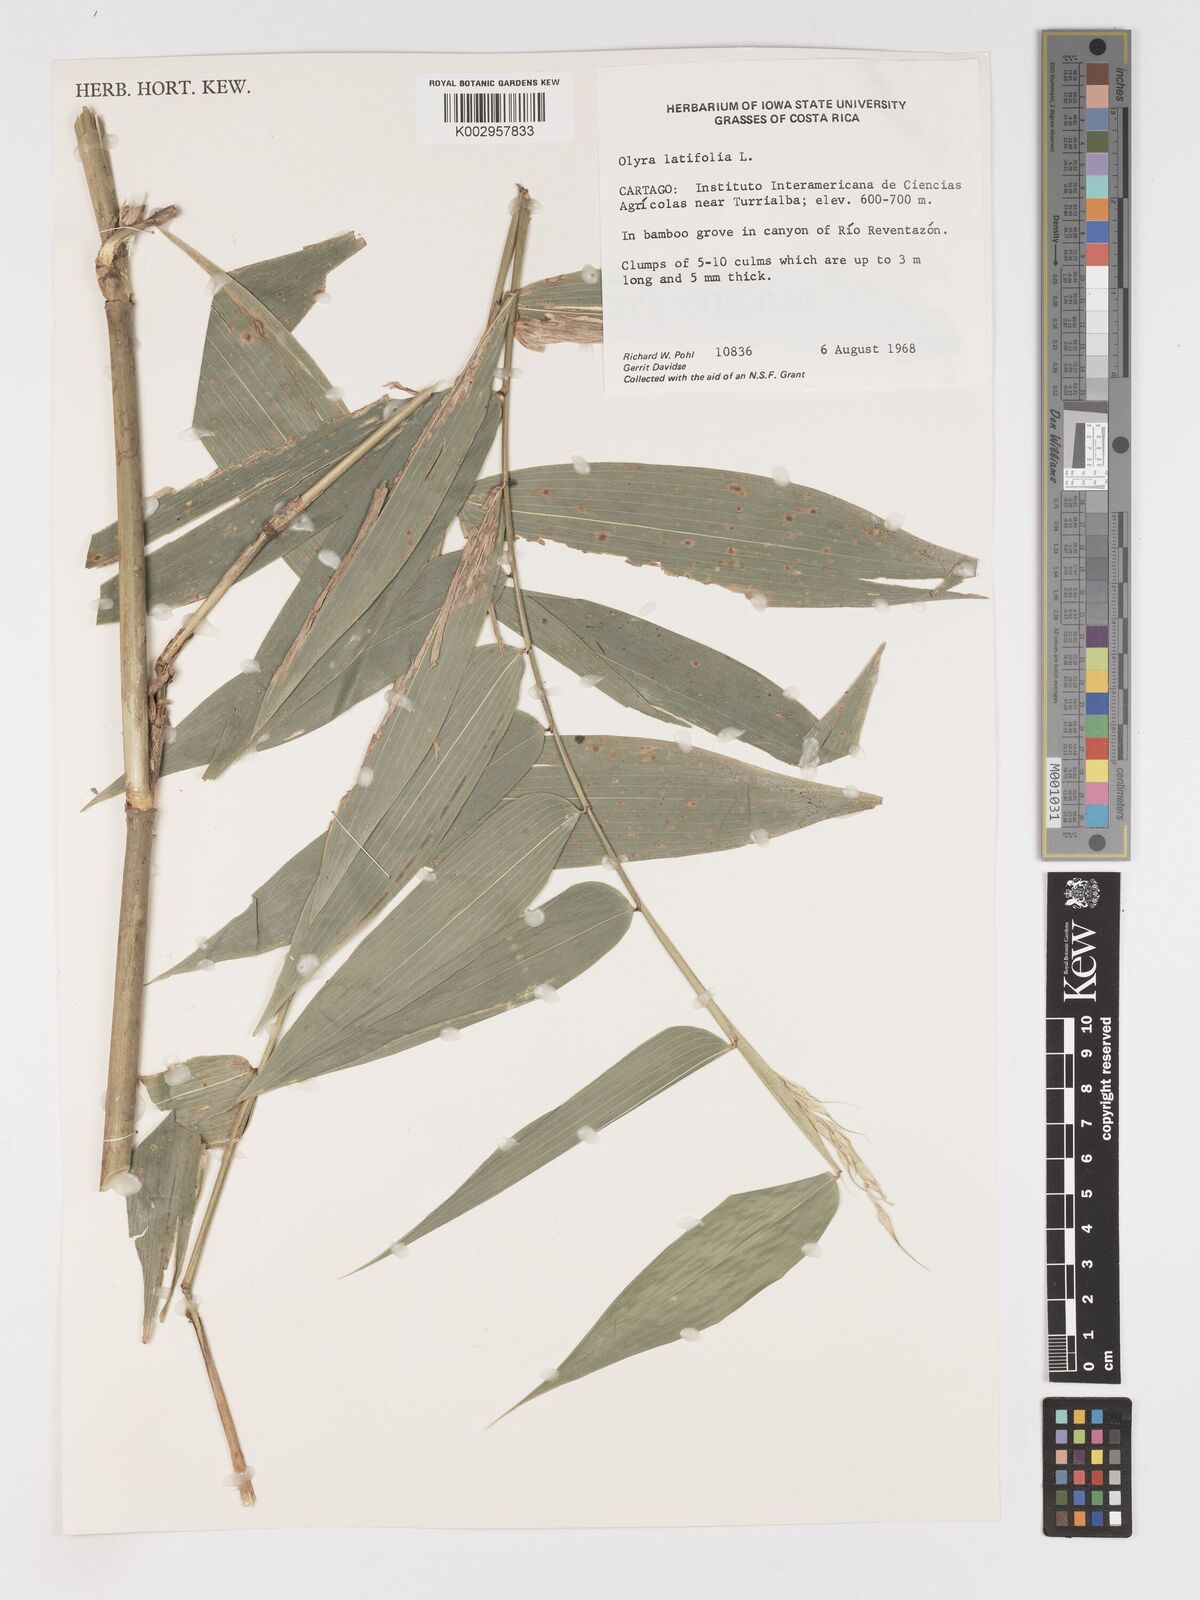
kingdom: Plantae
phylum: Tracheophyta
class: Liliopsida
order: Poales
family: Poaceae
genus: Olyra
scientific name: Olyra latifolia
